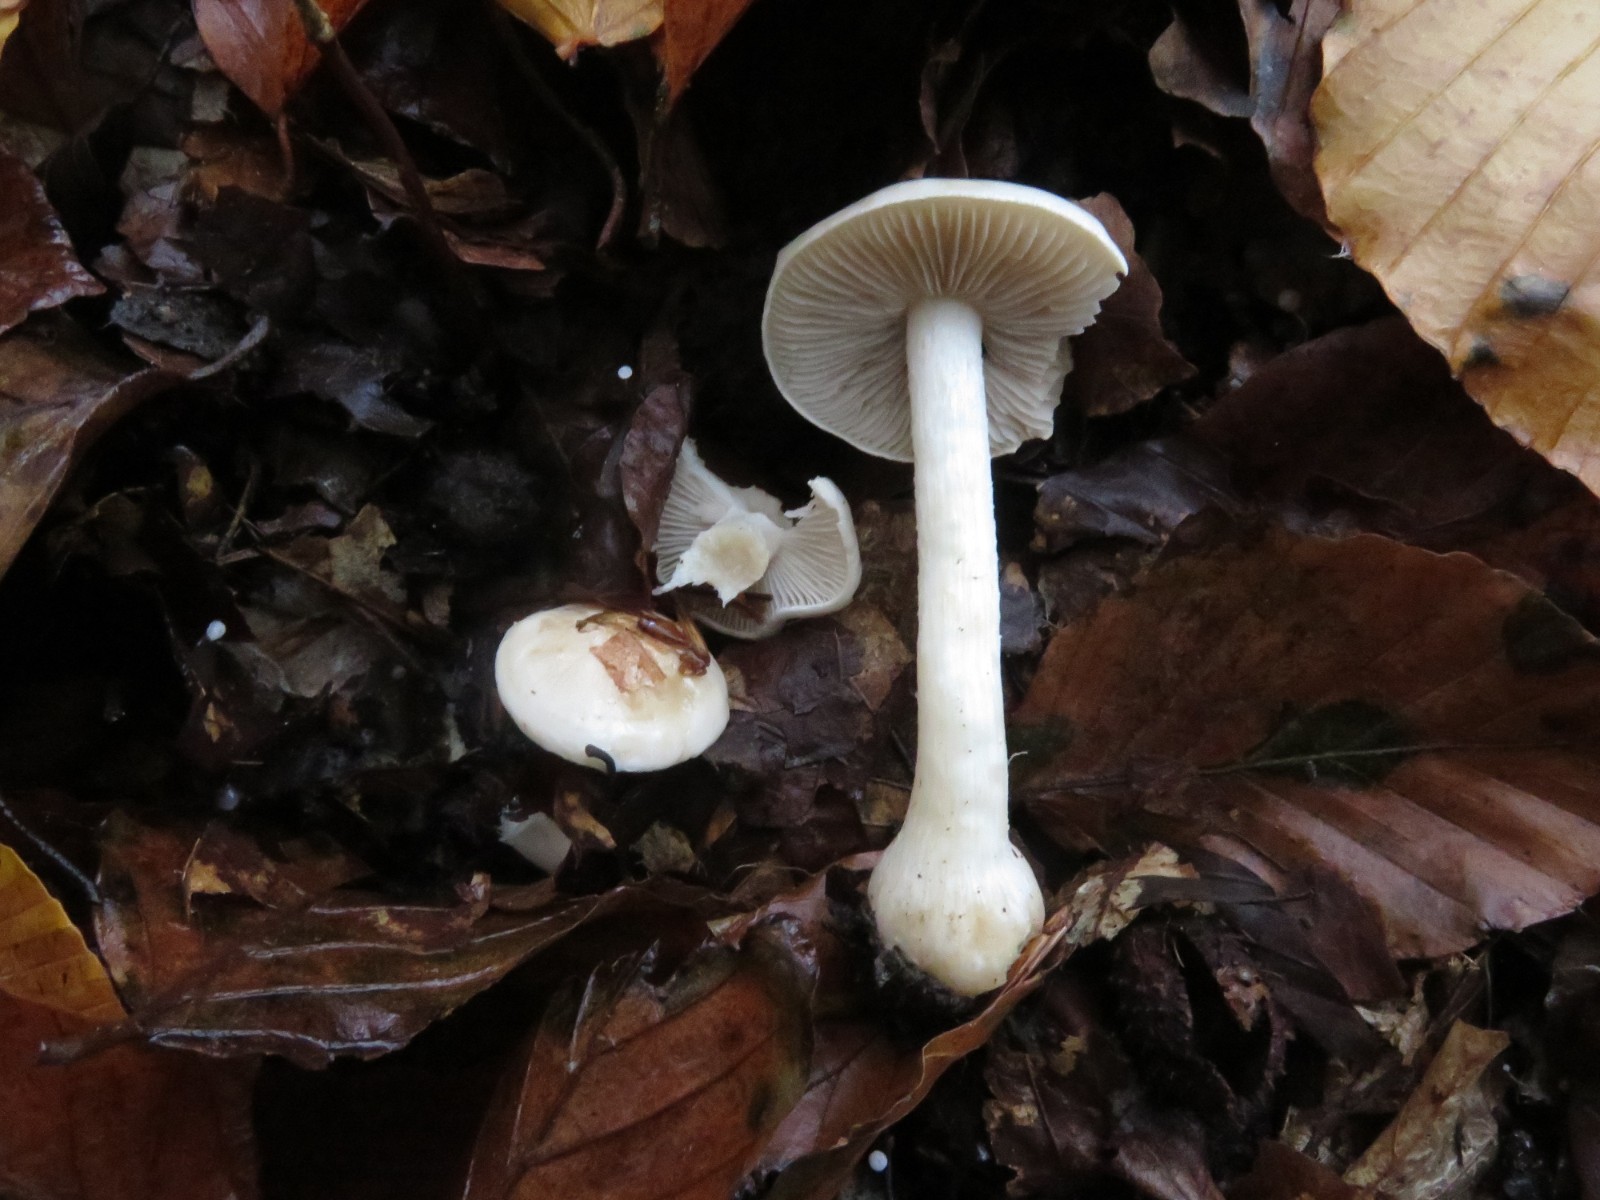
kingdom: Fungi
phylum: Basidiomycota
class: Agaricomycetes
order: Agaricales
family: Hymenogastraceae
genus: Hebeloma
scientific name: Hebeloma
